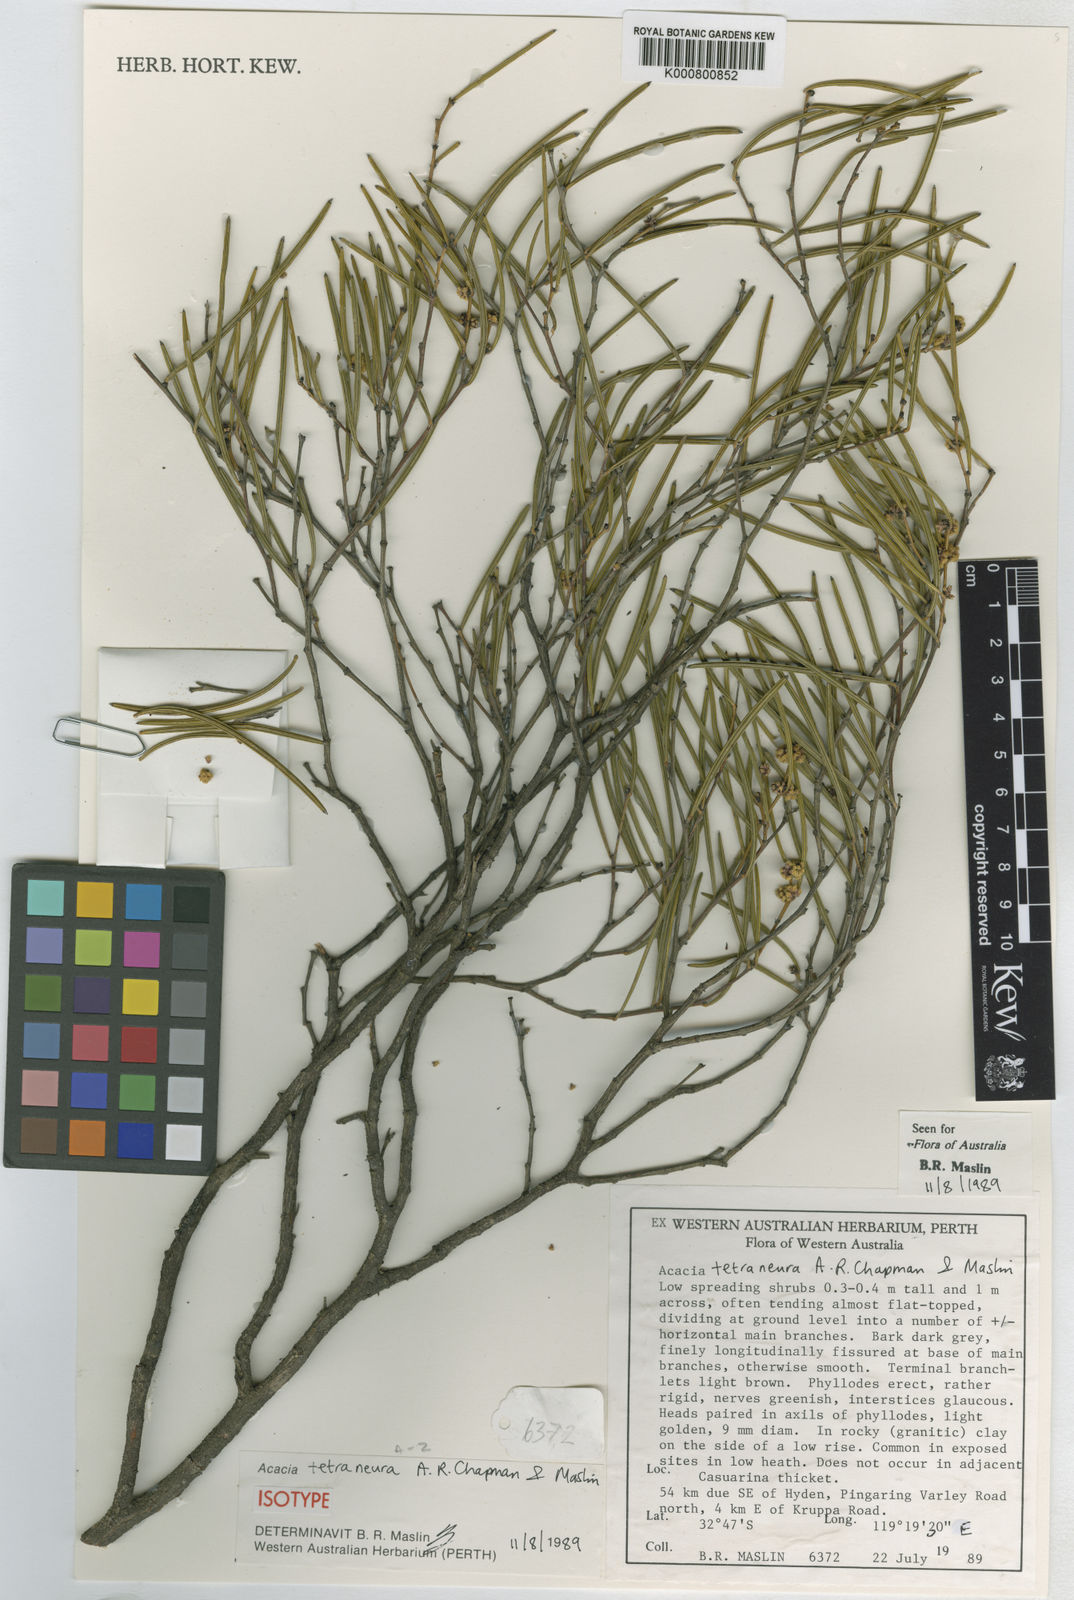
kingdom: Plantae
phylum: Tracheophyta
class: Magnoliopsida
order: Fabales
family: Fabaceae
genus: Acacia
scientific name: Acacia tetraneura
